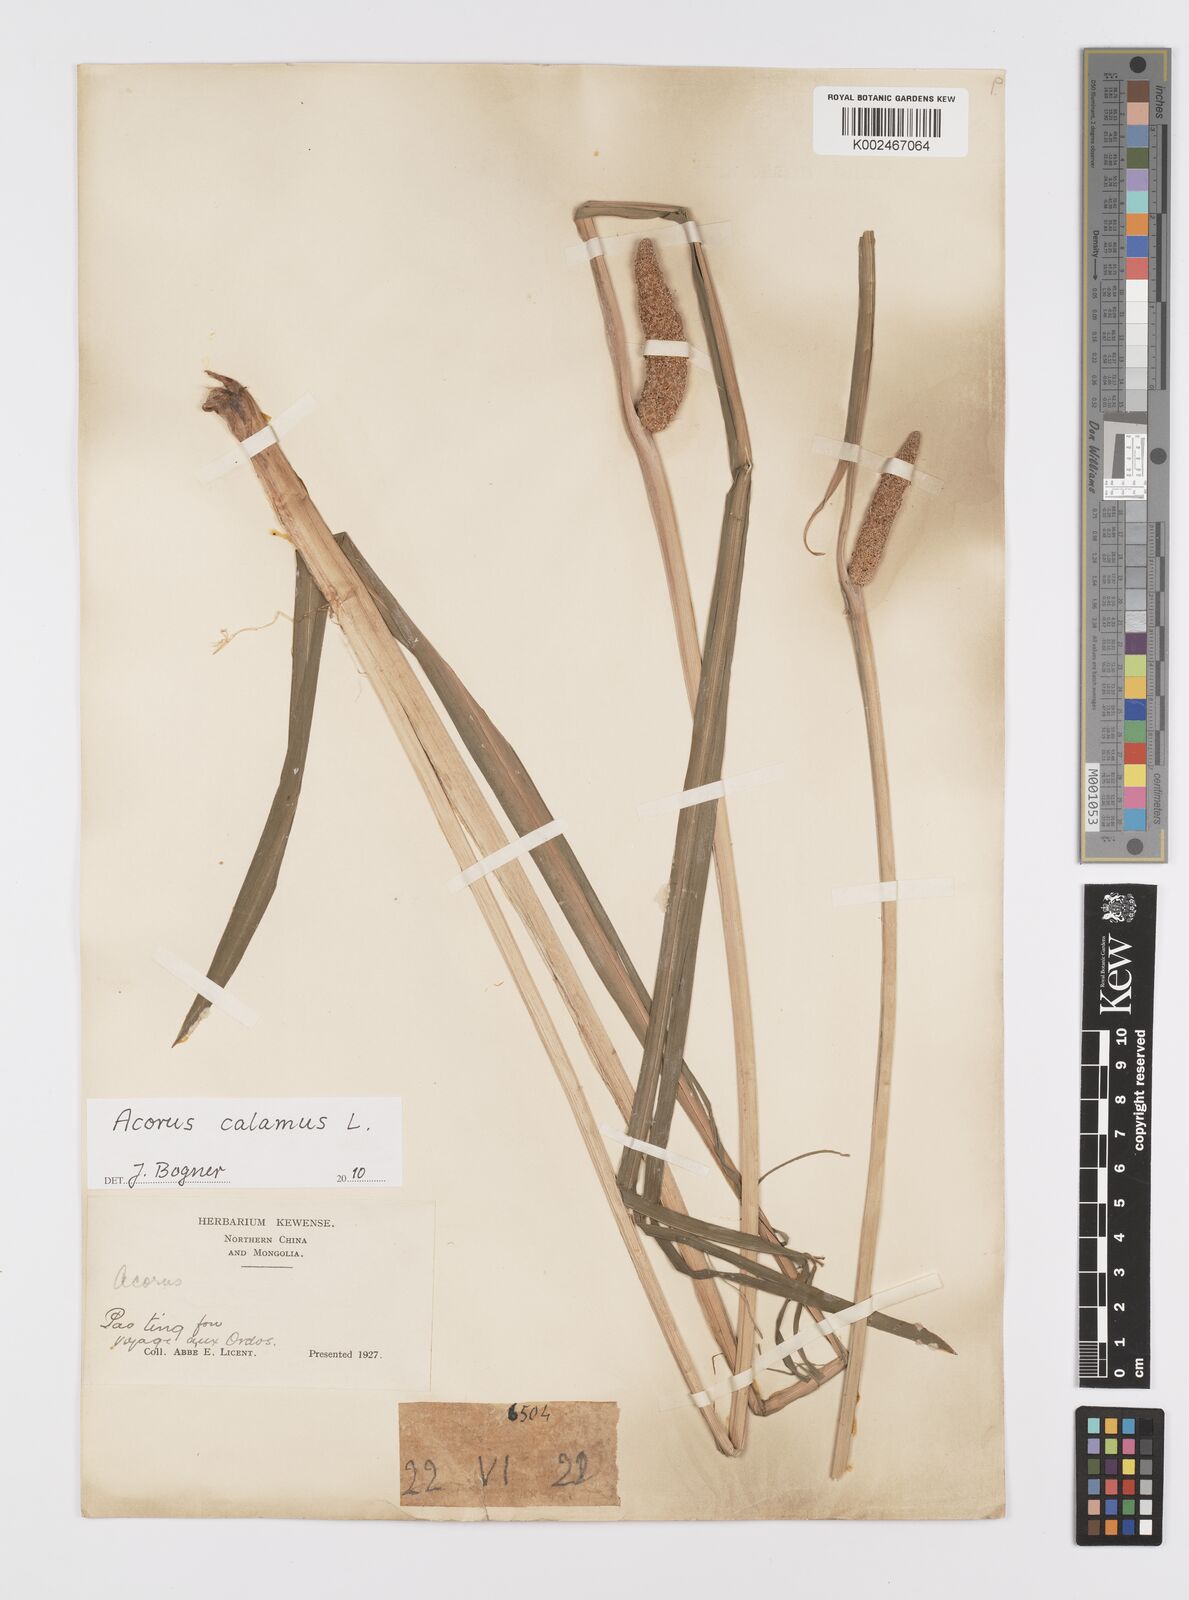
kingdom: Plantae
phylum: Tracheophyta
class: Liliopsida
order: Acorales
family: Acoraceae
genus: Acorus
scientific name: Acorus calamus
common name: Sweet-flag
